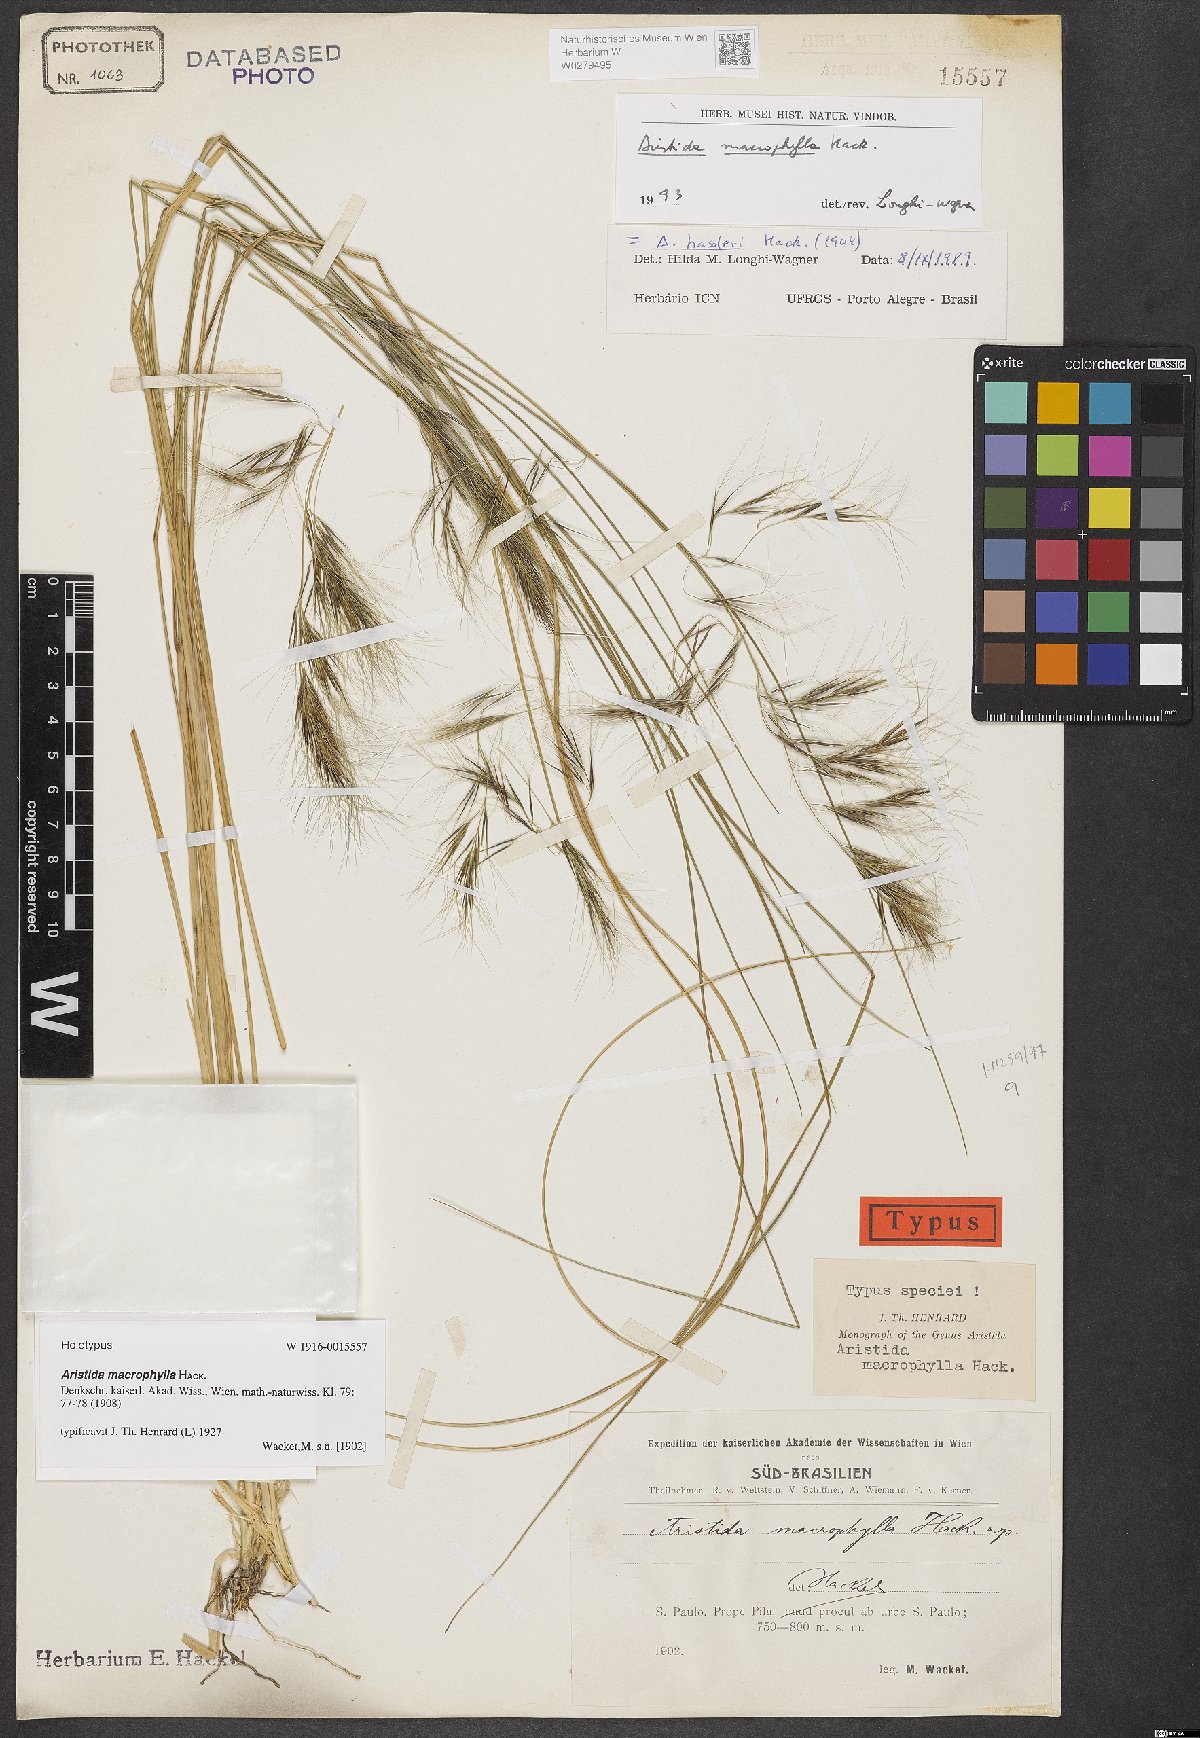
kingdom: Plantae
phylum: Tracheophyta
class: Liliopsida
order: Poales
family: Poaceae
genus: Aristida
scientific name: Aristida macrophylla
